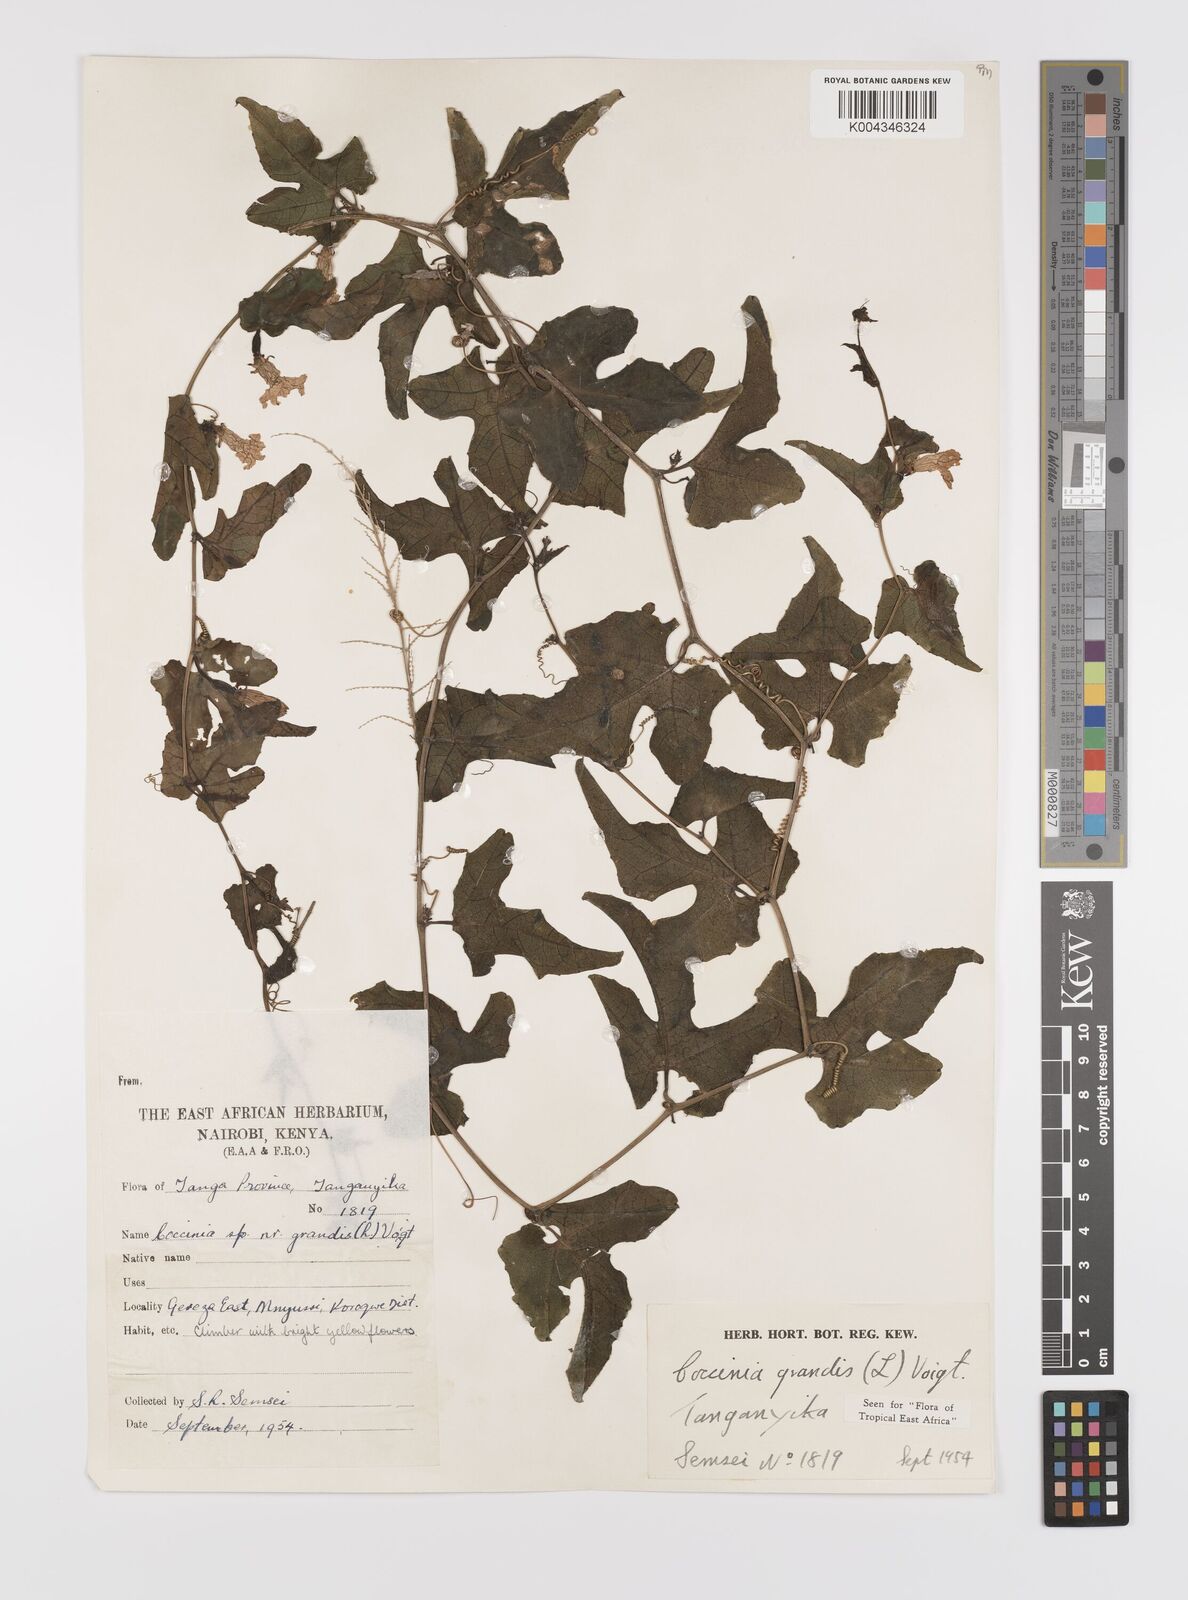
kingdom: Plantae
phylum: Tracheophyta
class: Magnoliopsida
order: Cucurbitales
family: Cucurbitaceae
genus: Coccinia
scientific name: Coccinia grandis
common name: Ivy gourd
